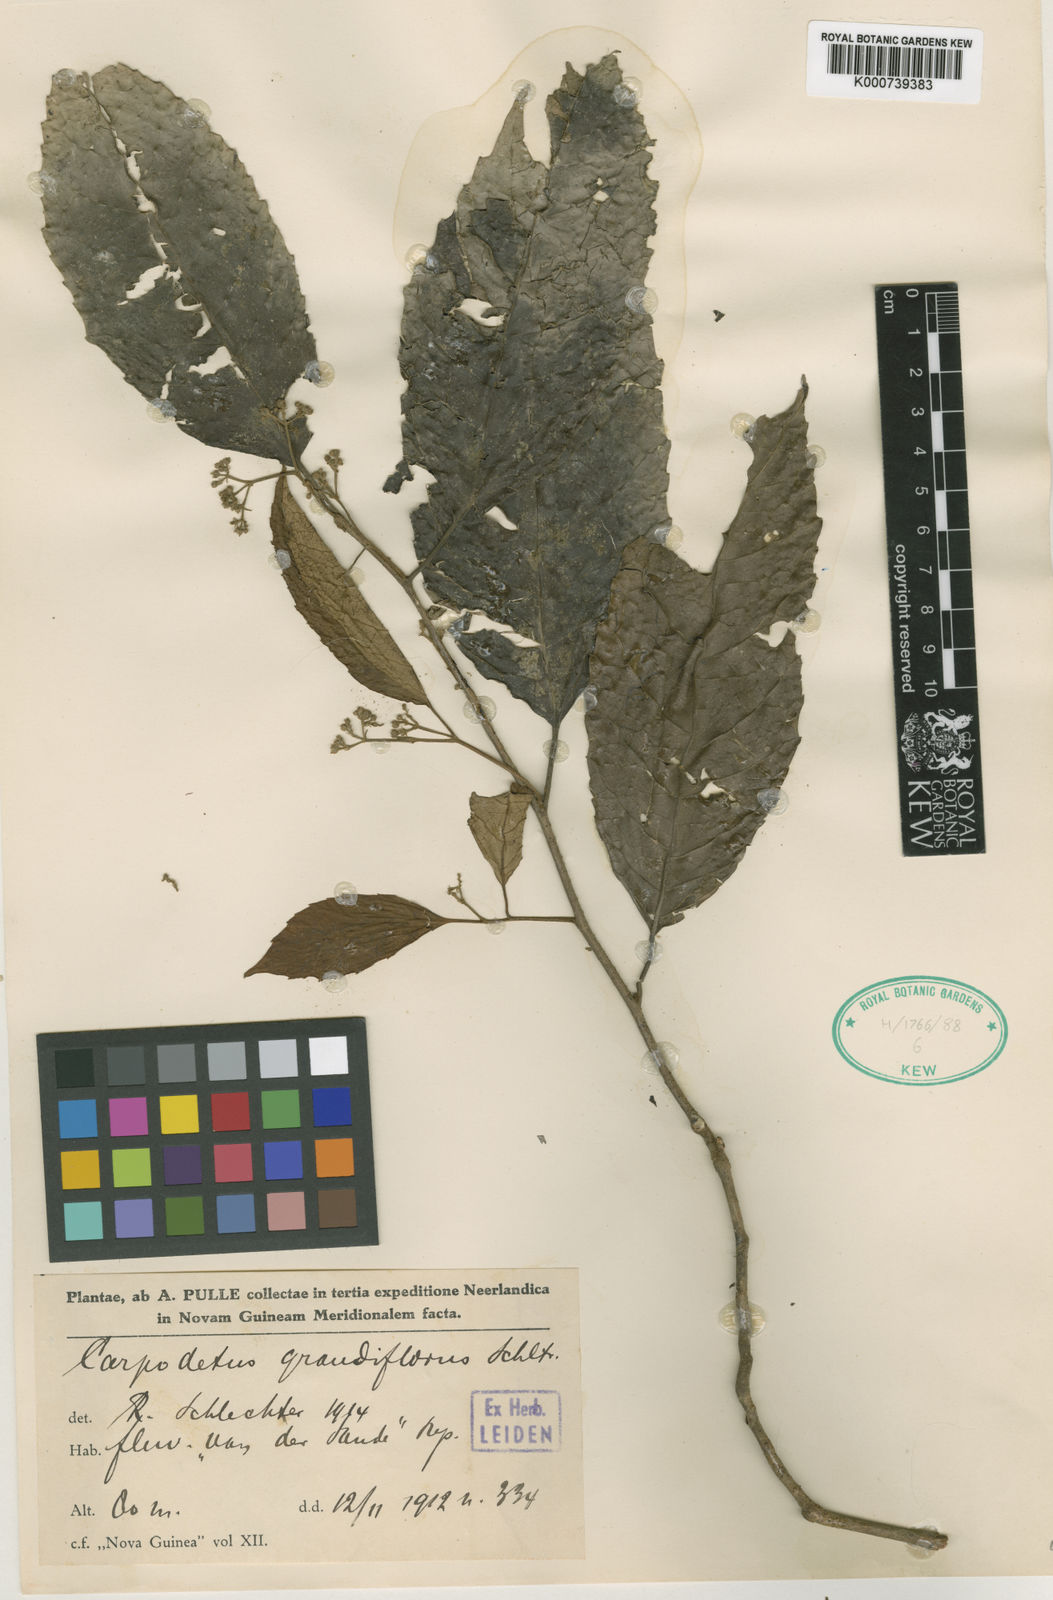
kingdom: Plantae
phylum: Tracheophyta
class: Magnoliopsida
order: Asterales
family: Rousseaceae
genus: Carpodetus
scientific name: Carpodetus arboreus
